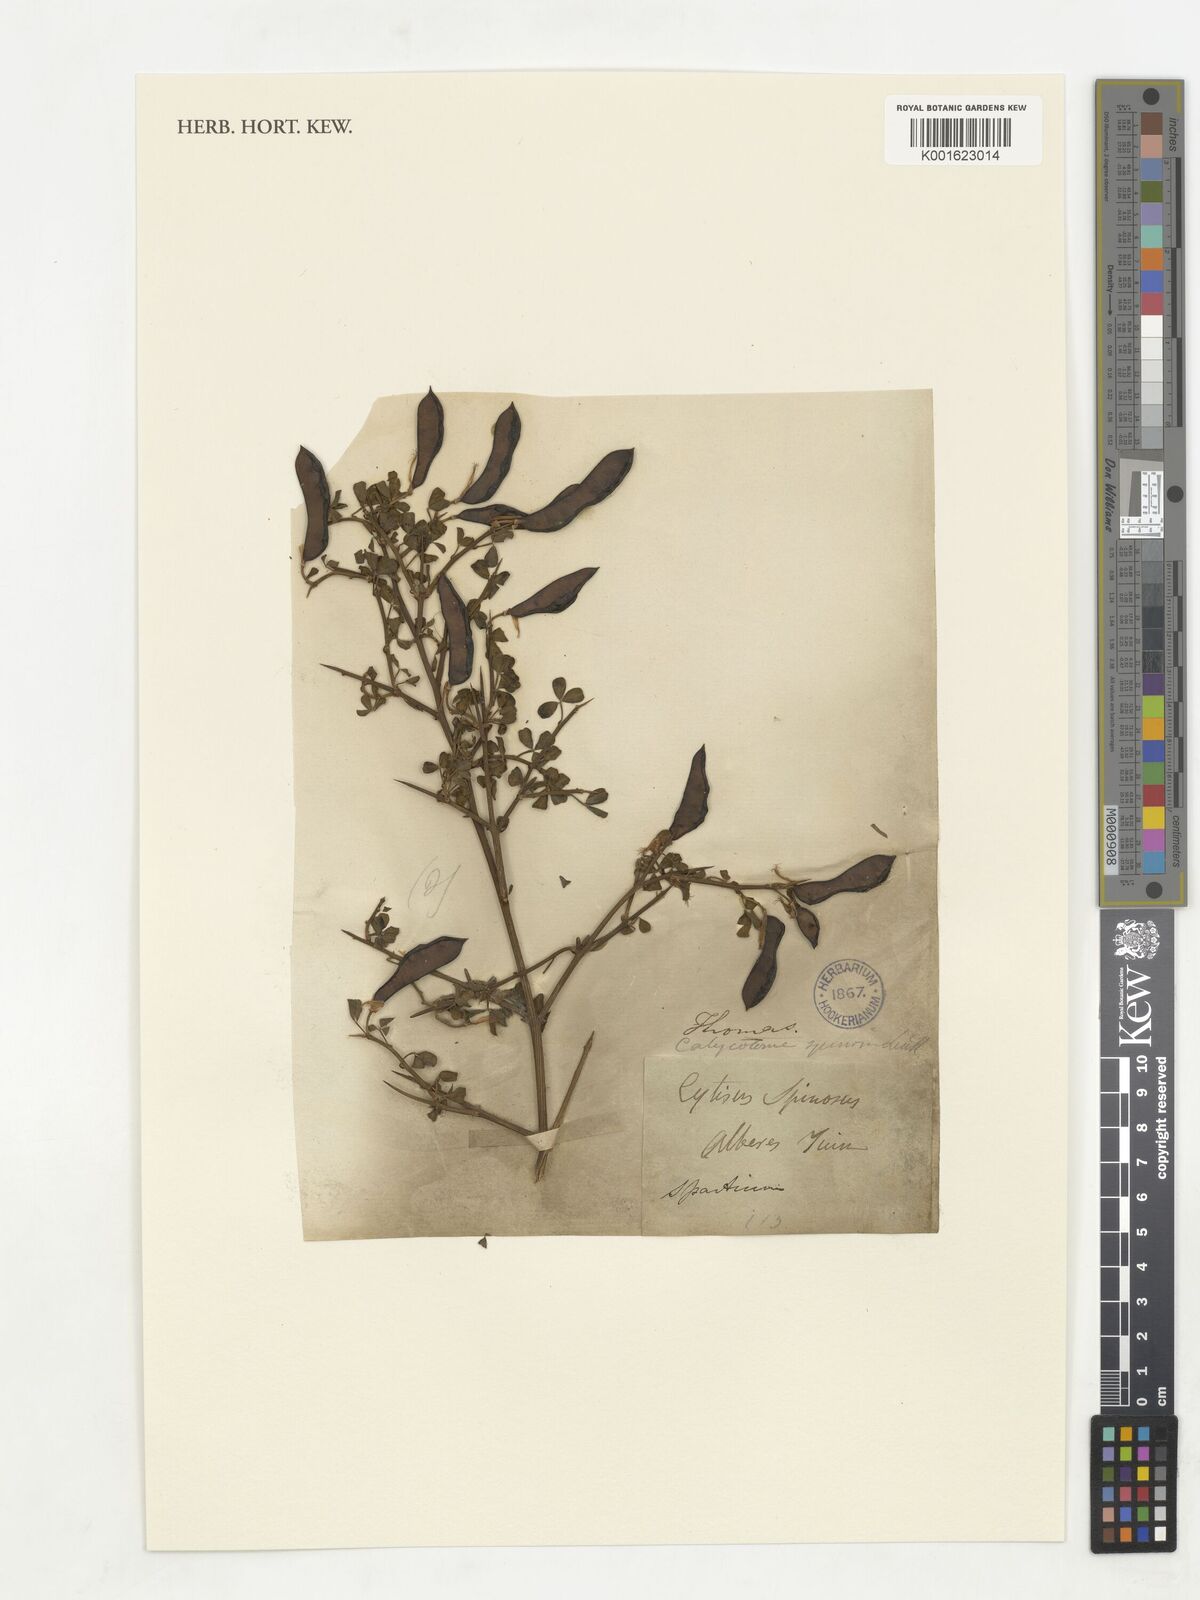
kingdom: Plantae
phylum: Tracheophyta
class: Magnoliopsida
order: Fabales
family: Fabaceae
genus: Calicotome
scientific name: Calicotome spinosa
